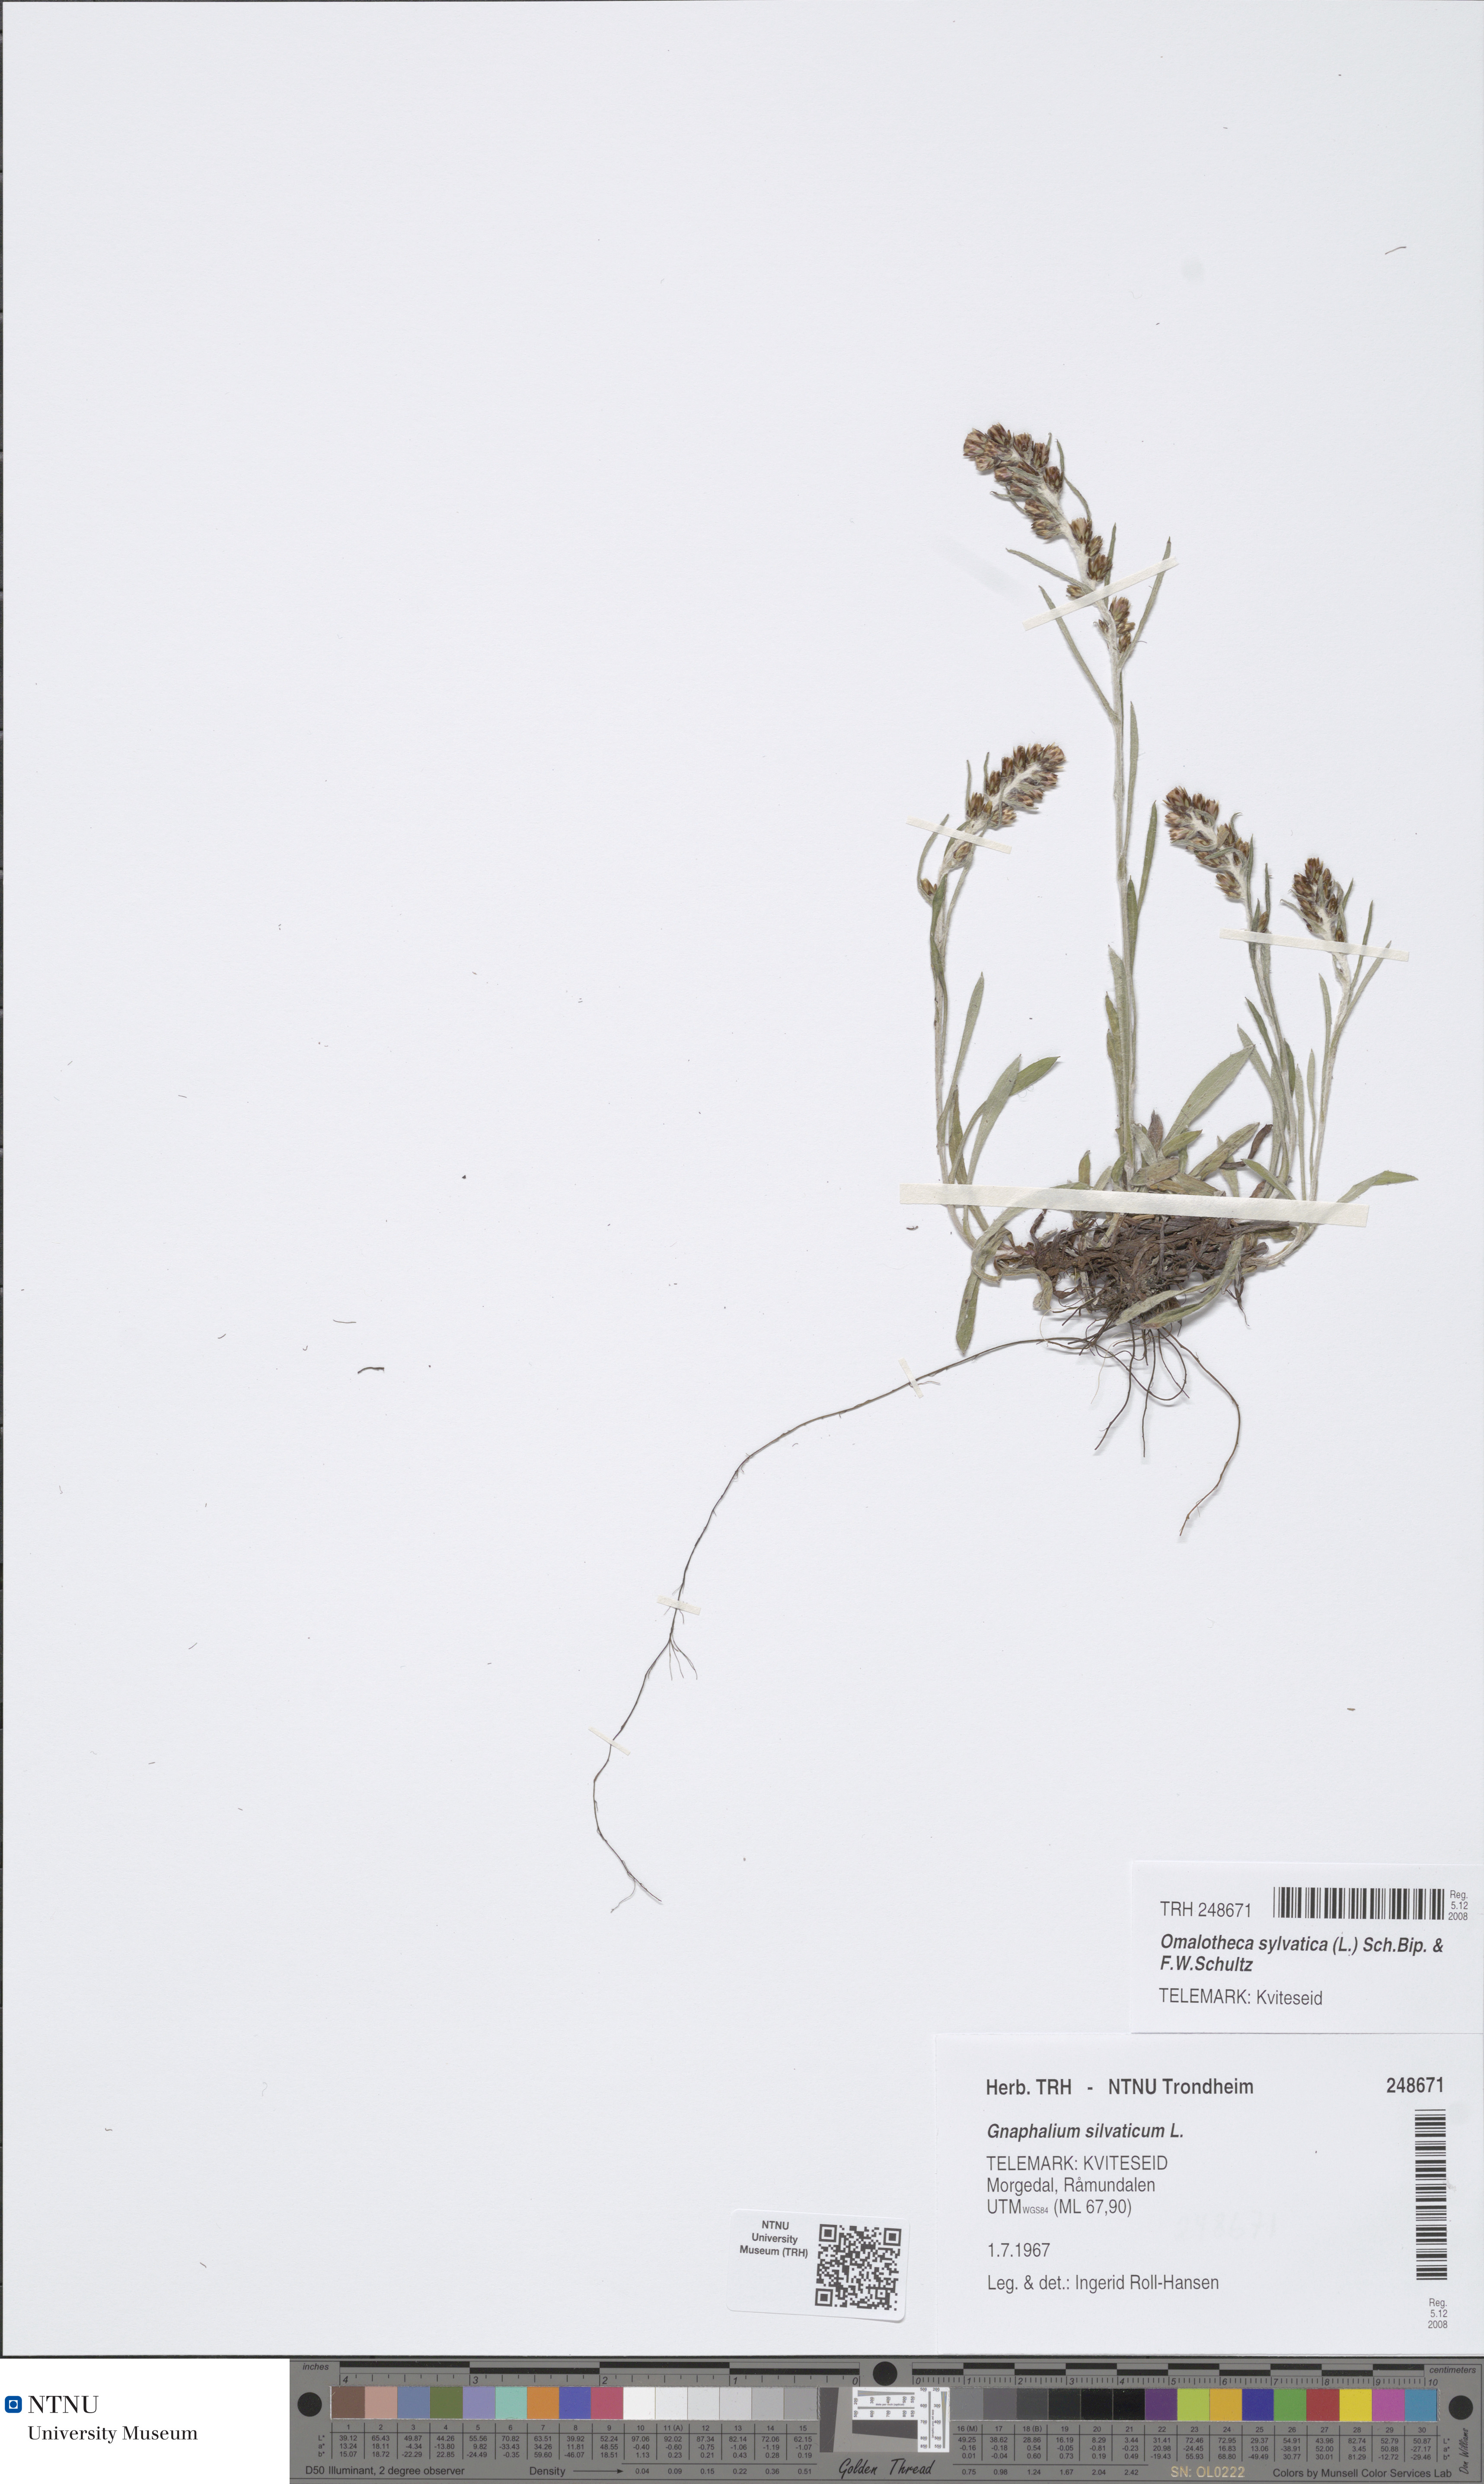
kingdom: Plantae
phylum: Tracheophyta
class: Magnoliopsida
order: Asterales
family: Asteraceae
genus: Omalotheca
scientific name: Omalotheca sylvatica
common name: Heath cudweed
